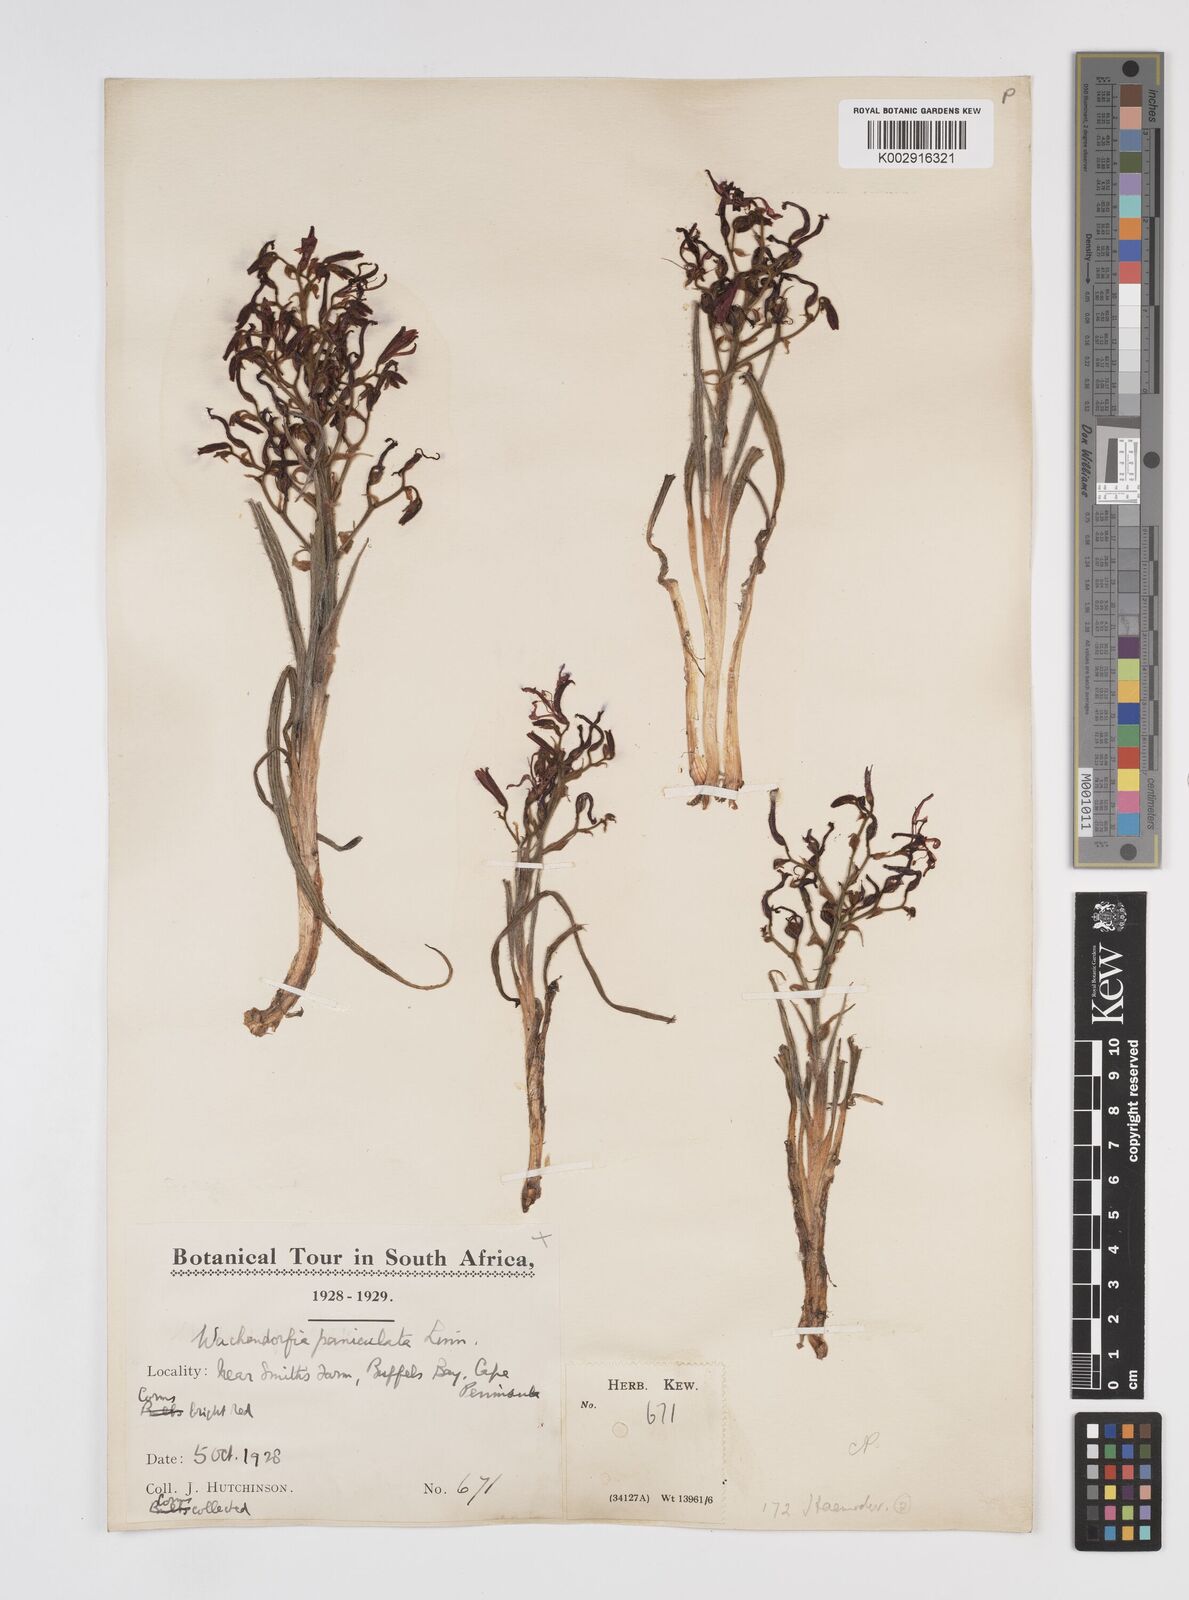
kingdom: Plantae
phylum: Tracheophyta
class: Liliopsida
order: Commelinales
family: Haemodoraceae
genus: Wachendorfia
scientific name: Wachendorfia paniculata
